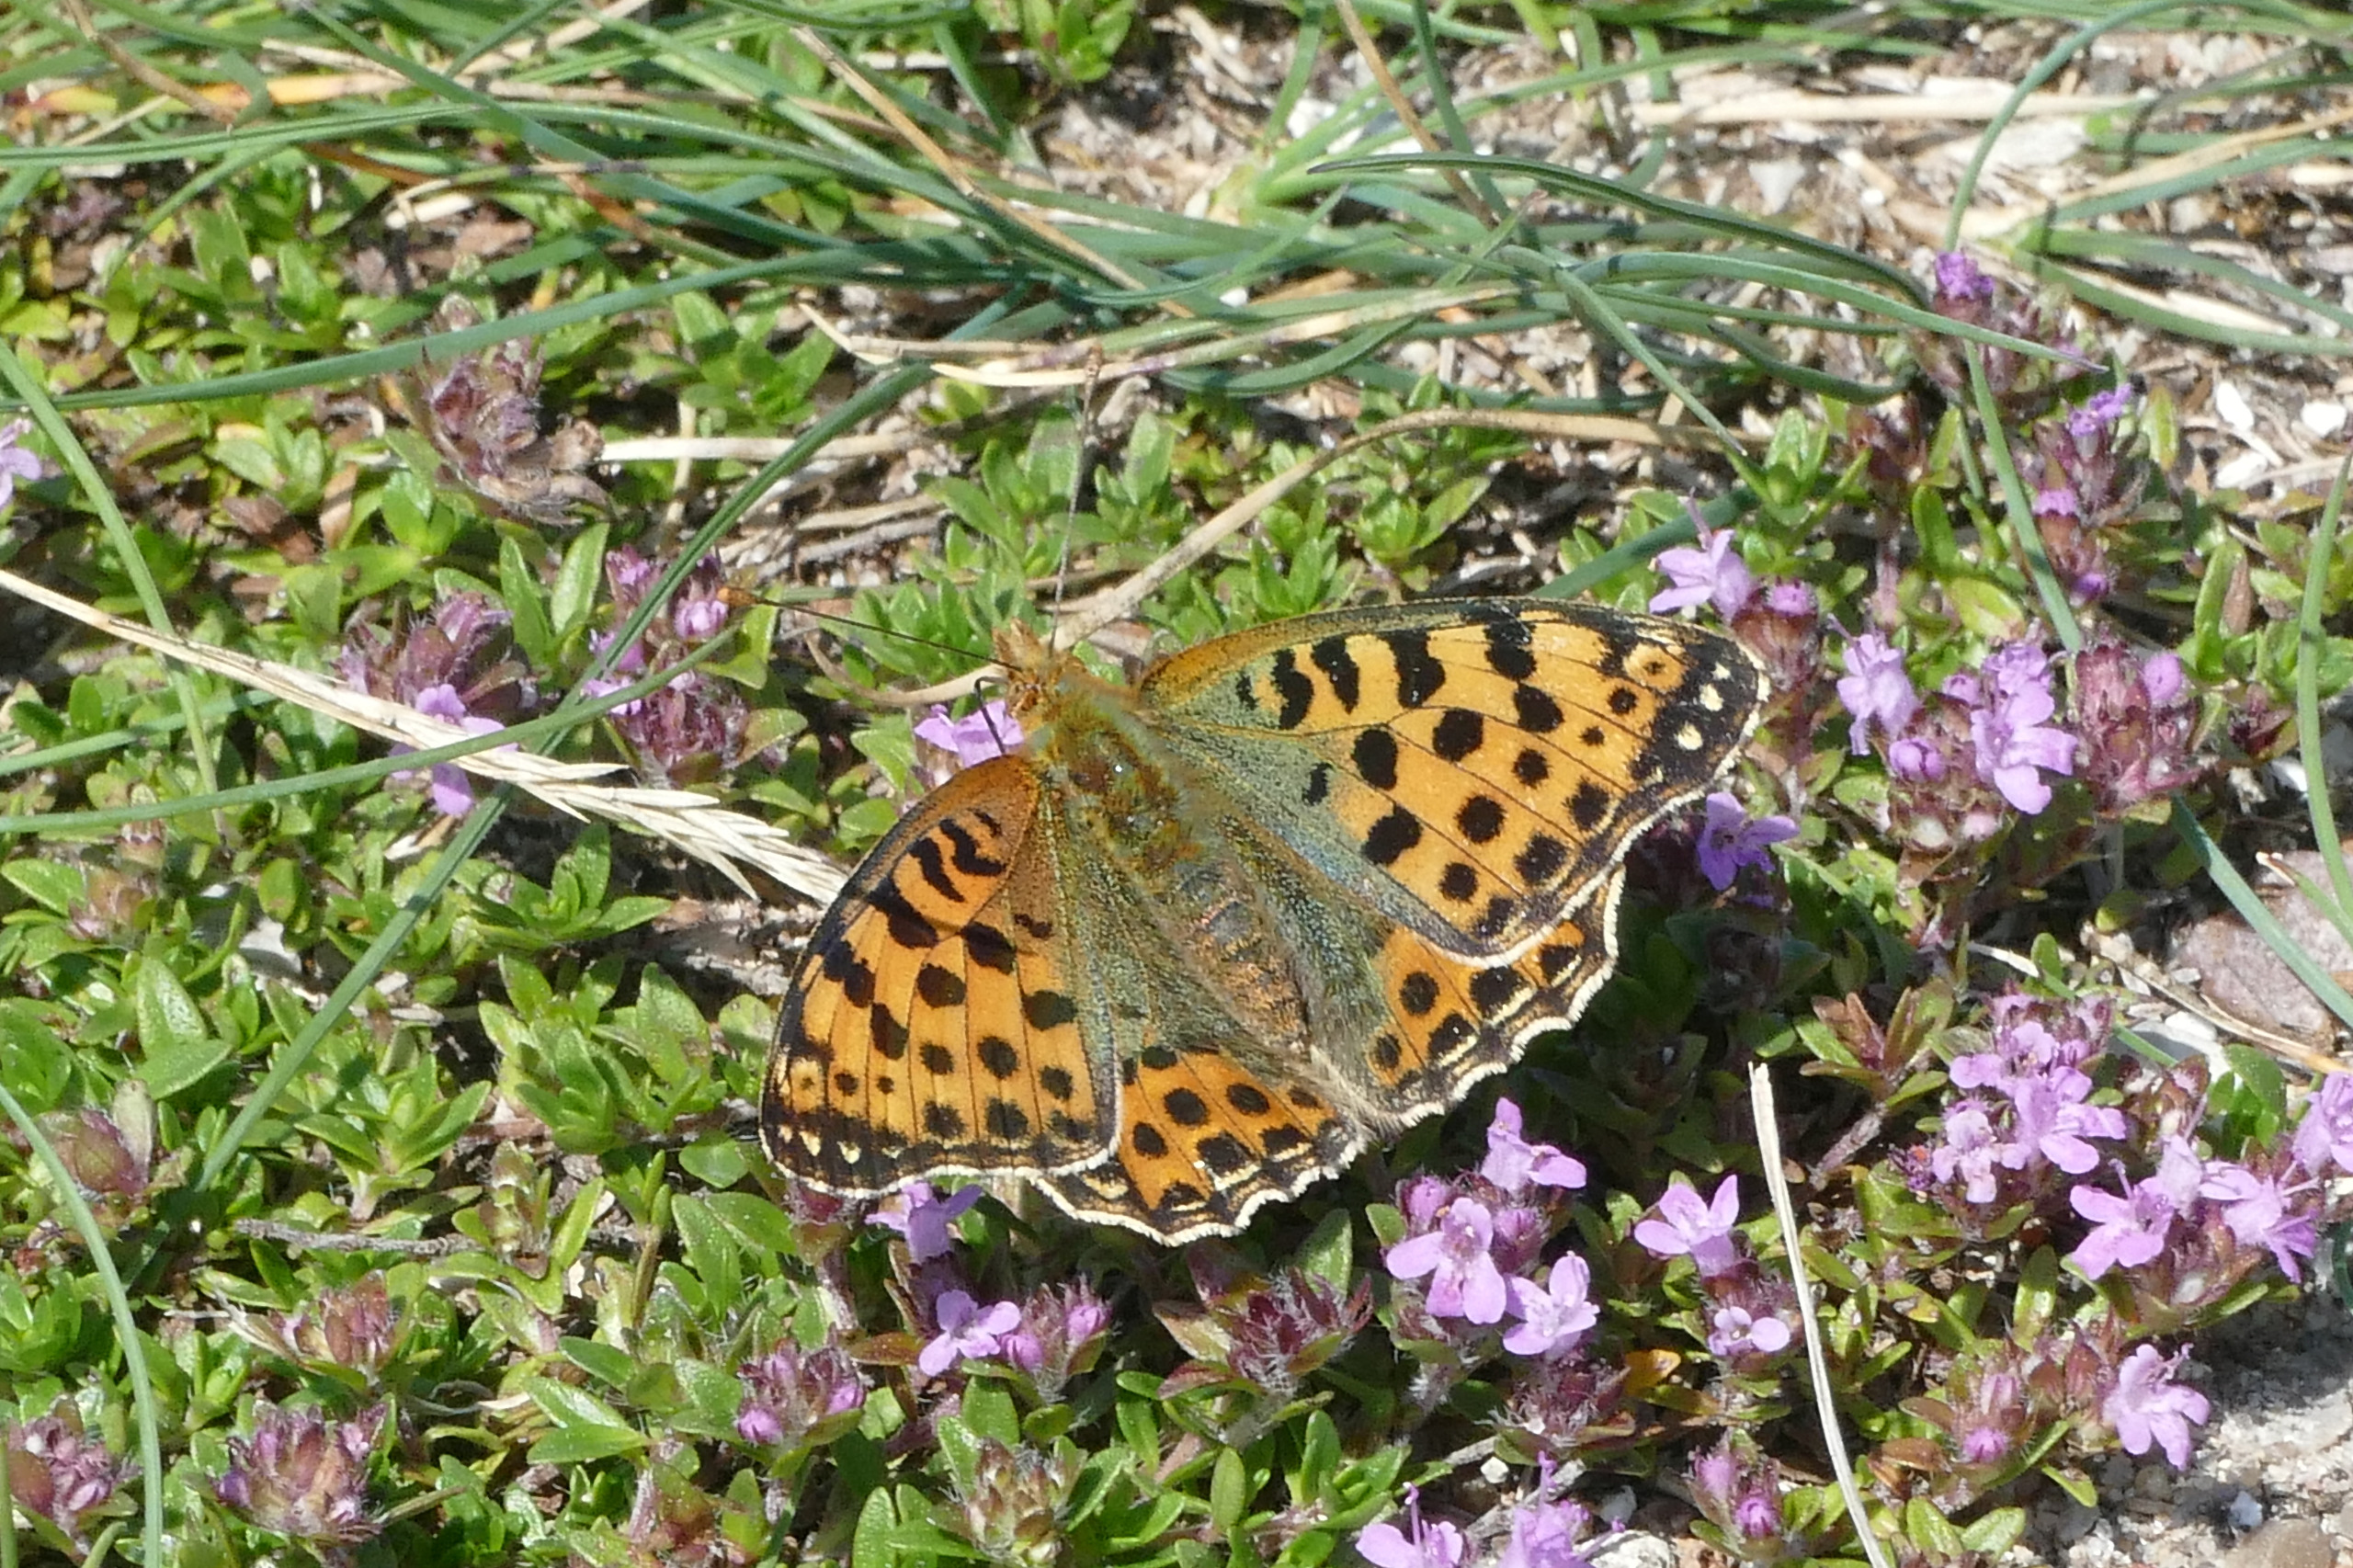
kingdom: Animalia
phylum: Arthropoda
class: Insecta
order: Lepidoptera
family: Nymphalidae
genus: Issoria
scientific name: Issoria lathonia
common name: Storplettet perlemorsommerfugl
